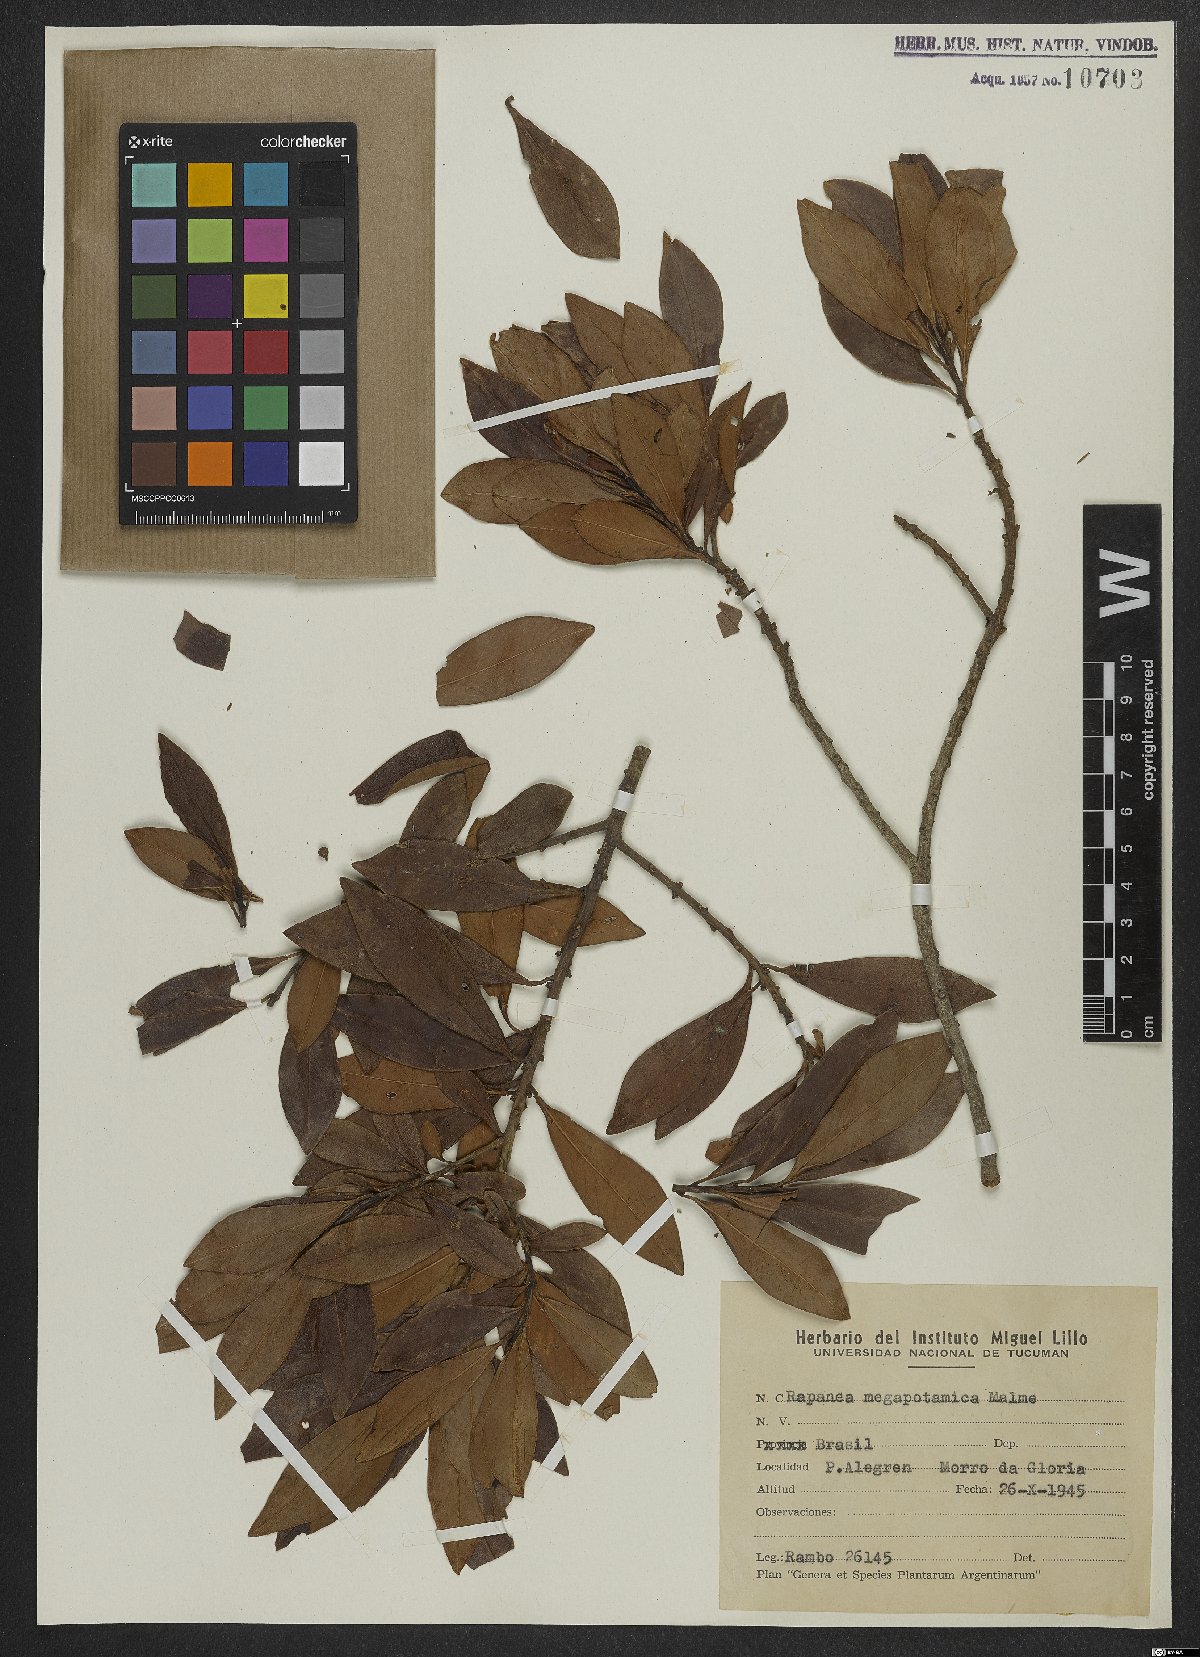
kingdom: Plantae
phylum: Tracheophyta
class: Magnoliopsida
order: Ericales
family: Primulaceae
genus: Myrsine
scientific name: Myrsine lorentziana
